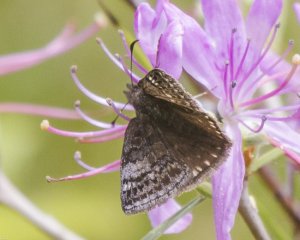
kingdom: Animalia
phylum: Arthropoda
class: Insecta
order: Lepidoptera
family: Hesperiidae
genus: Erynnis
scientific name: Erynnis icelus
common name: Dreamy Duskywing
